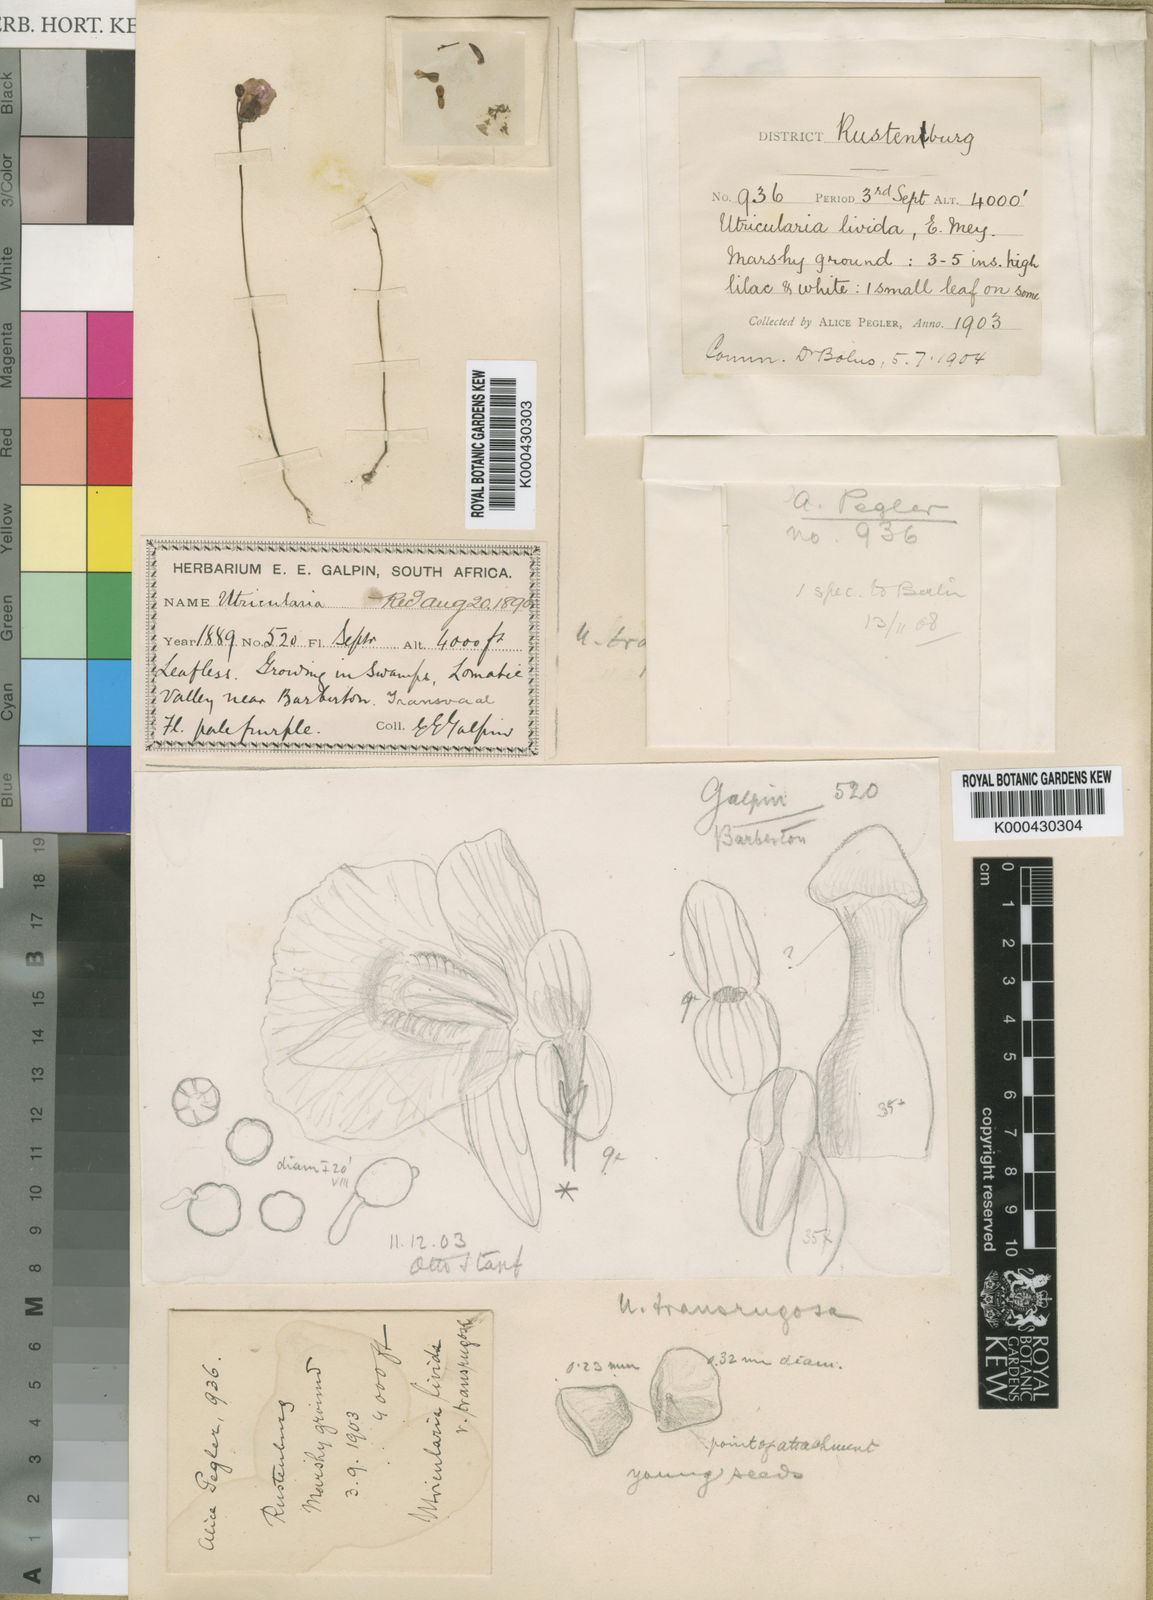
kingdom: Plantae
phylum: Tracheophyta
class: Magnoliopsida
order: Lamiales
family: Lentibulariaceae
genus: Utricularia
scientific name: Utricularia livida
